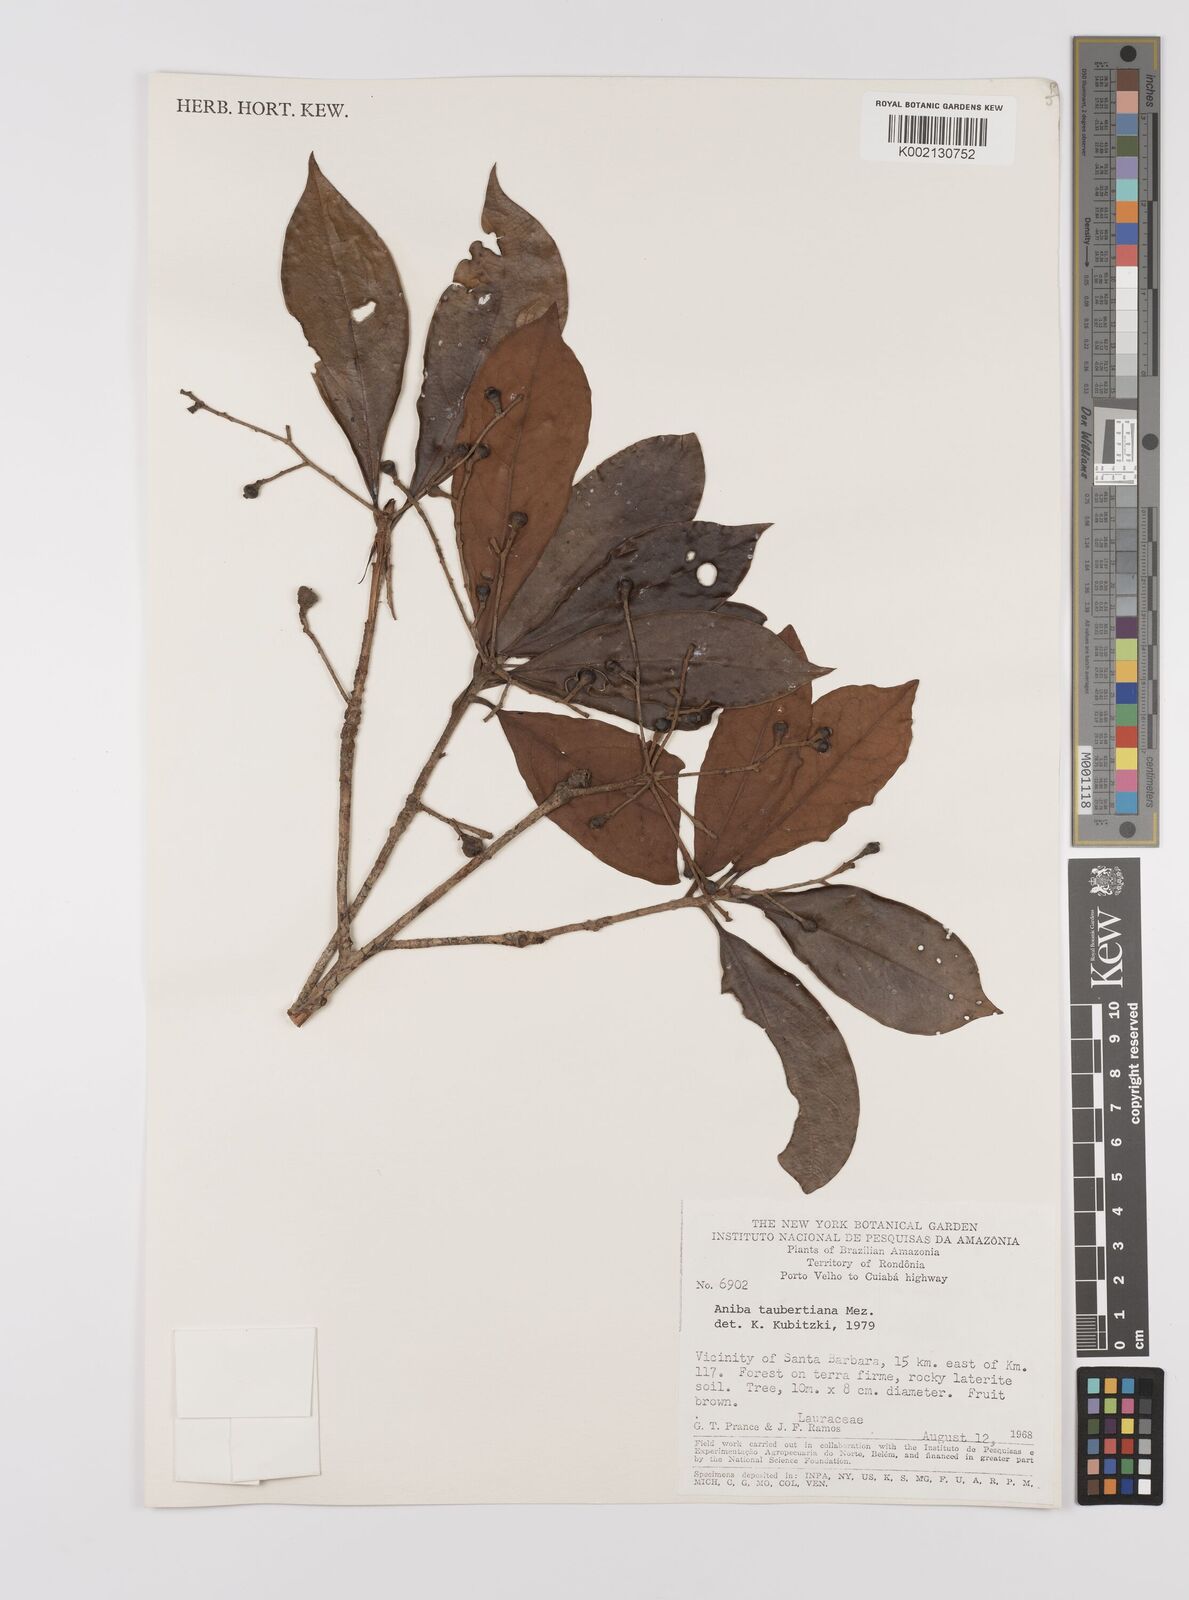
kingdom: Plantae
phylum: Tracheophyta
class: Magnoliopsida
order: Laurales
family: Lauraceae
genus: Aniba
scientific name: Aniba taubertiana
